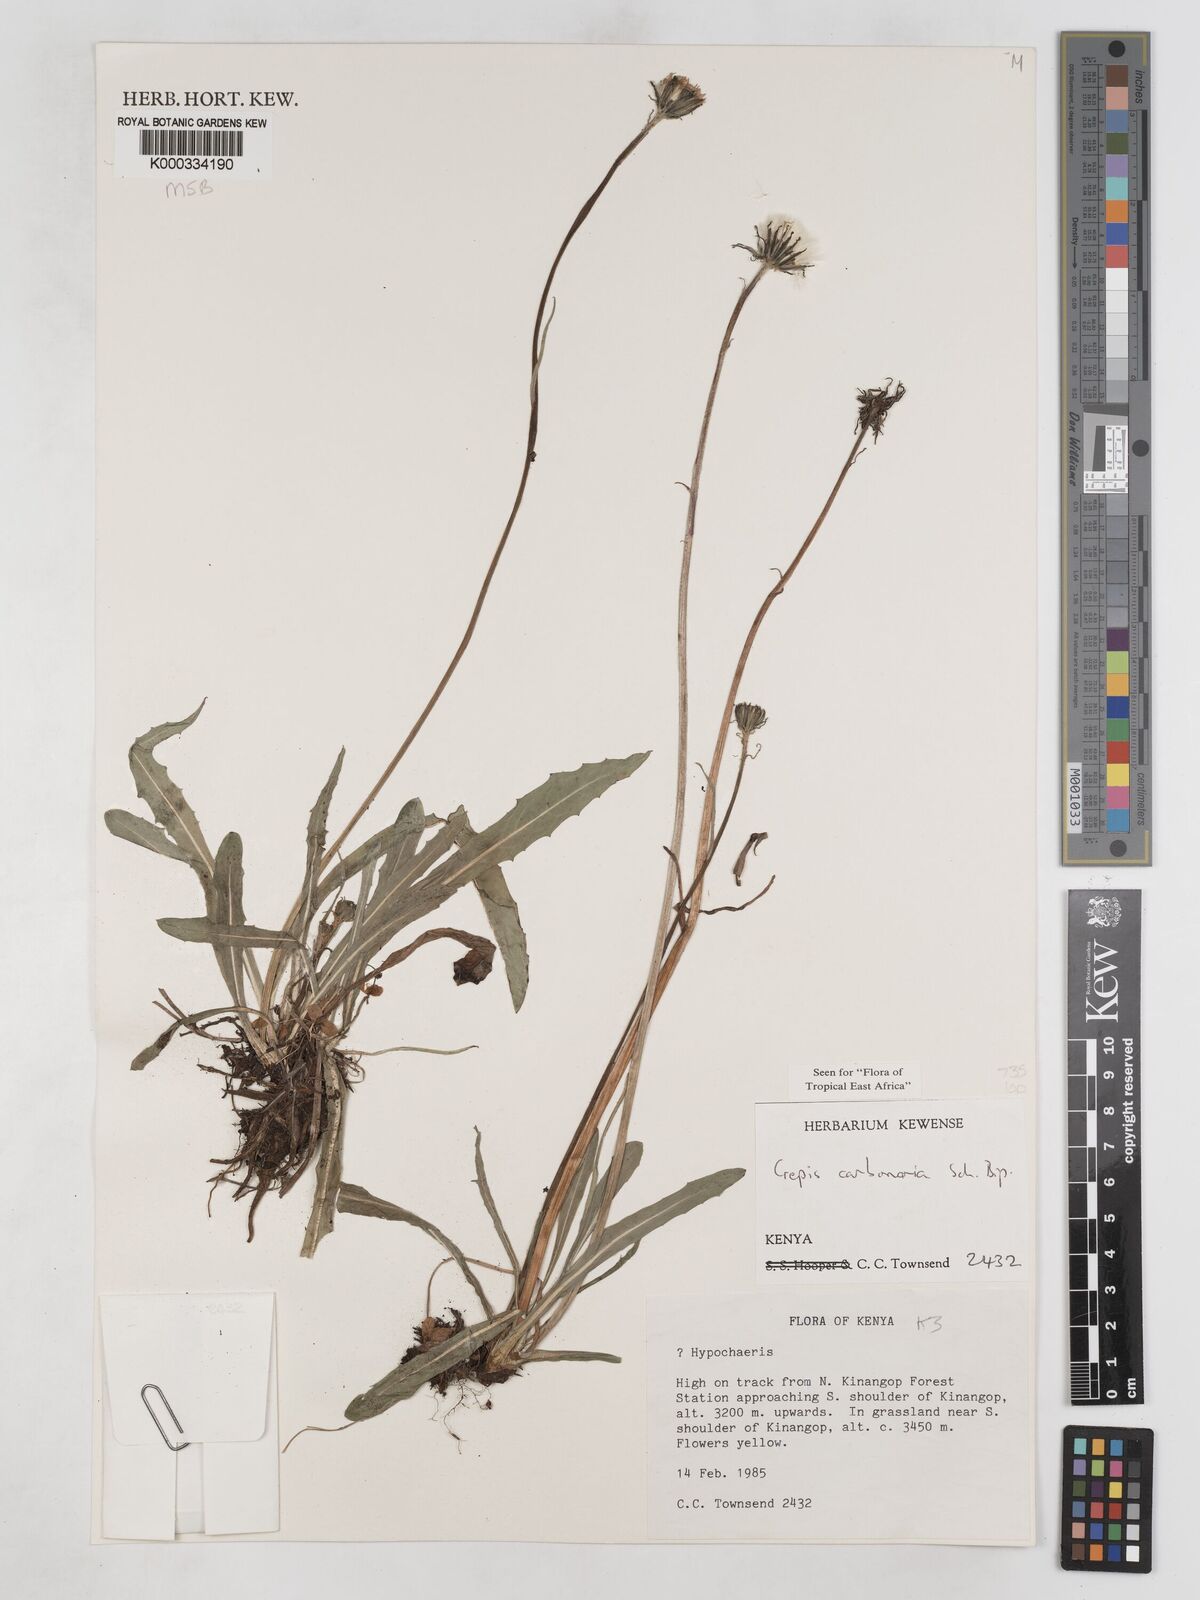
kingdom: Plantae
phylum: Tracheophyta
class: Magnoliopsida
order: Asterales
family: Asteraceae
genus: Crepis
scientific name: Crepis carbonaria
